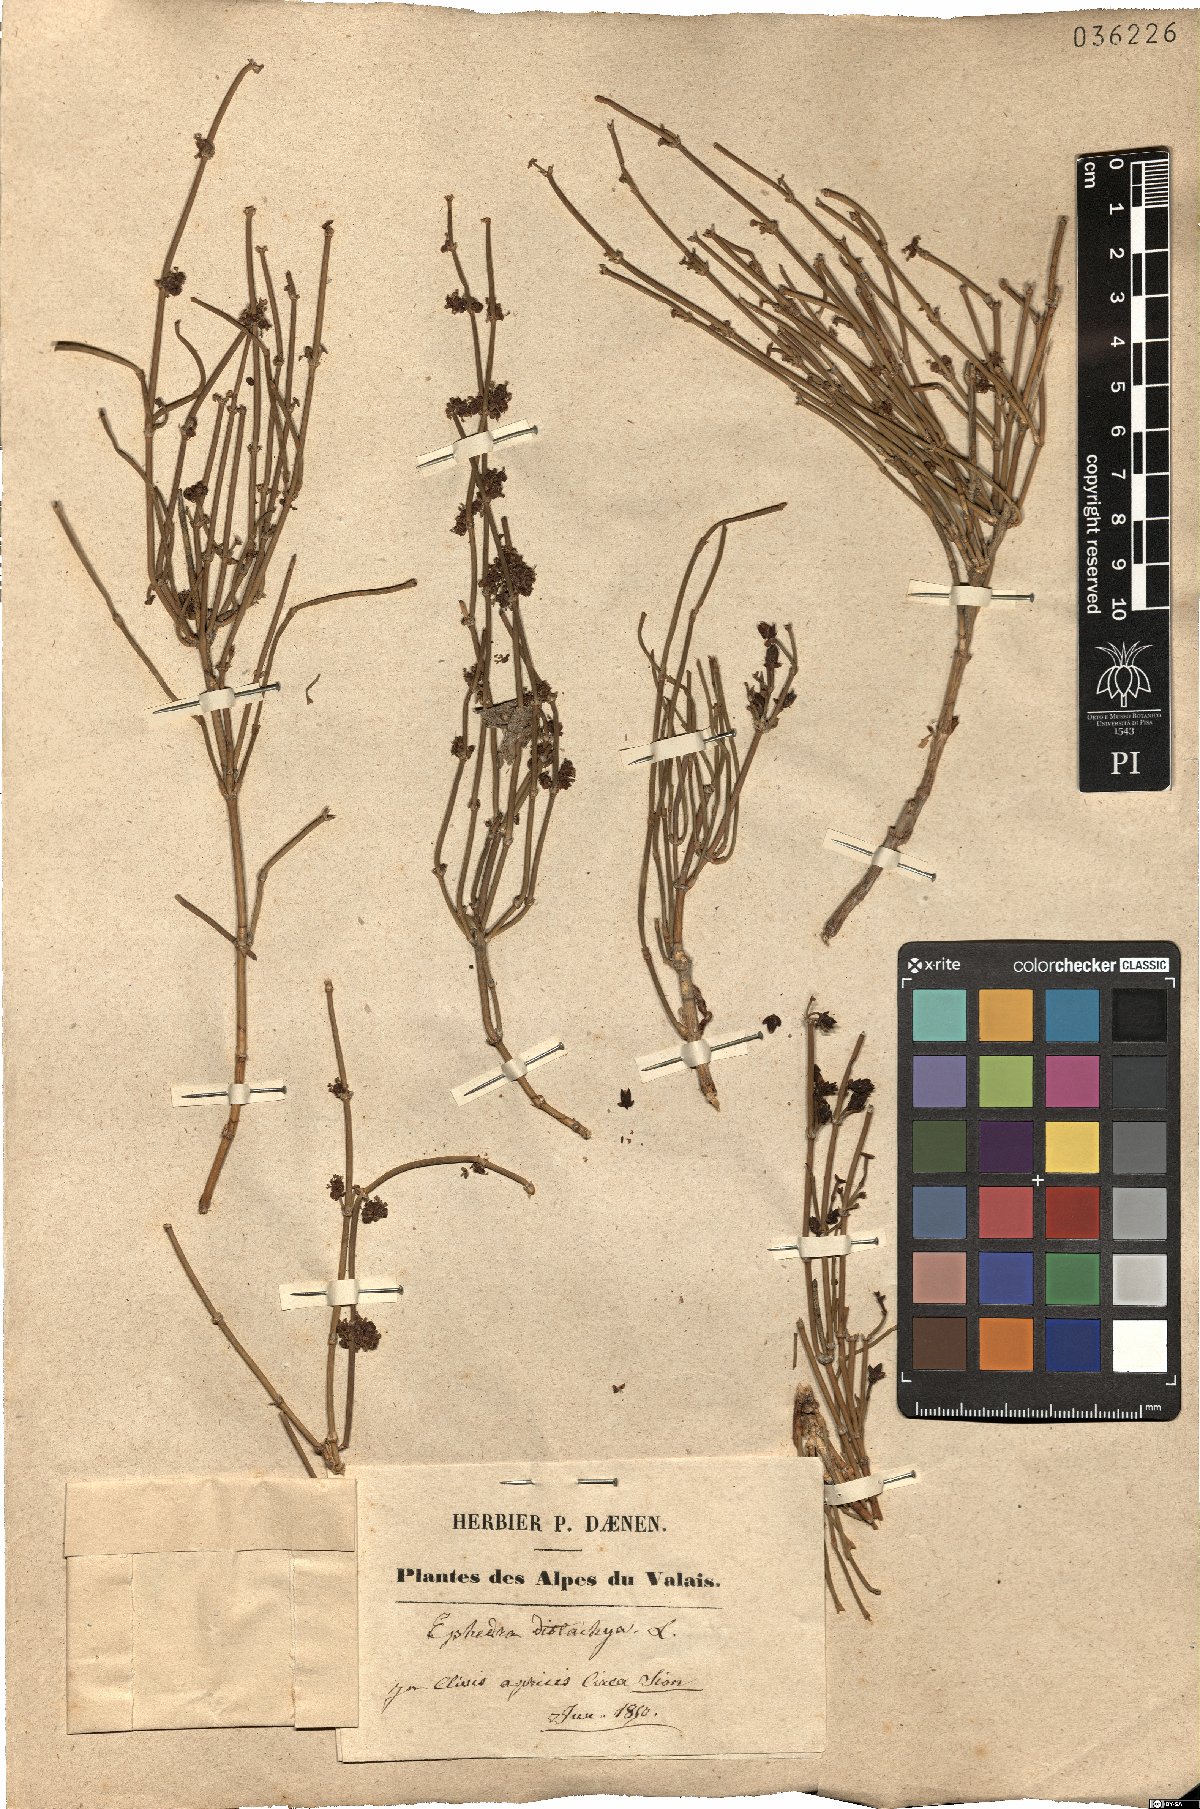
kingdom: Plantae
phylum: Tracheophyta
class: Gnetopsida
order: Ephedrales
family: Ephedraceae
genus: Ephedra
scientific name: Ephedra distachya
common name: Sea grape
